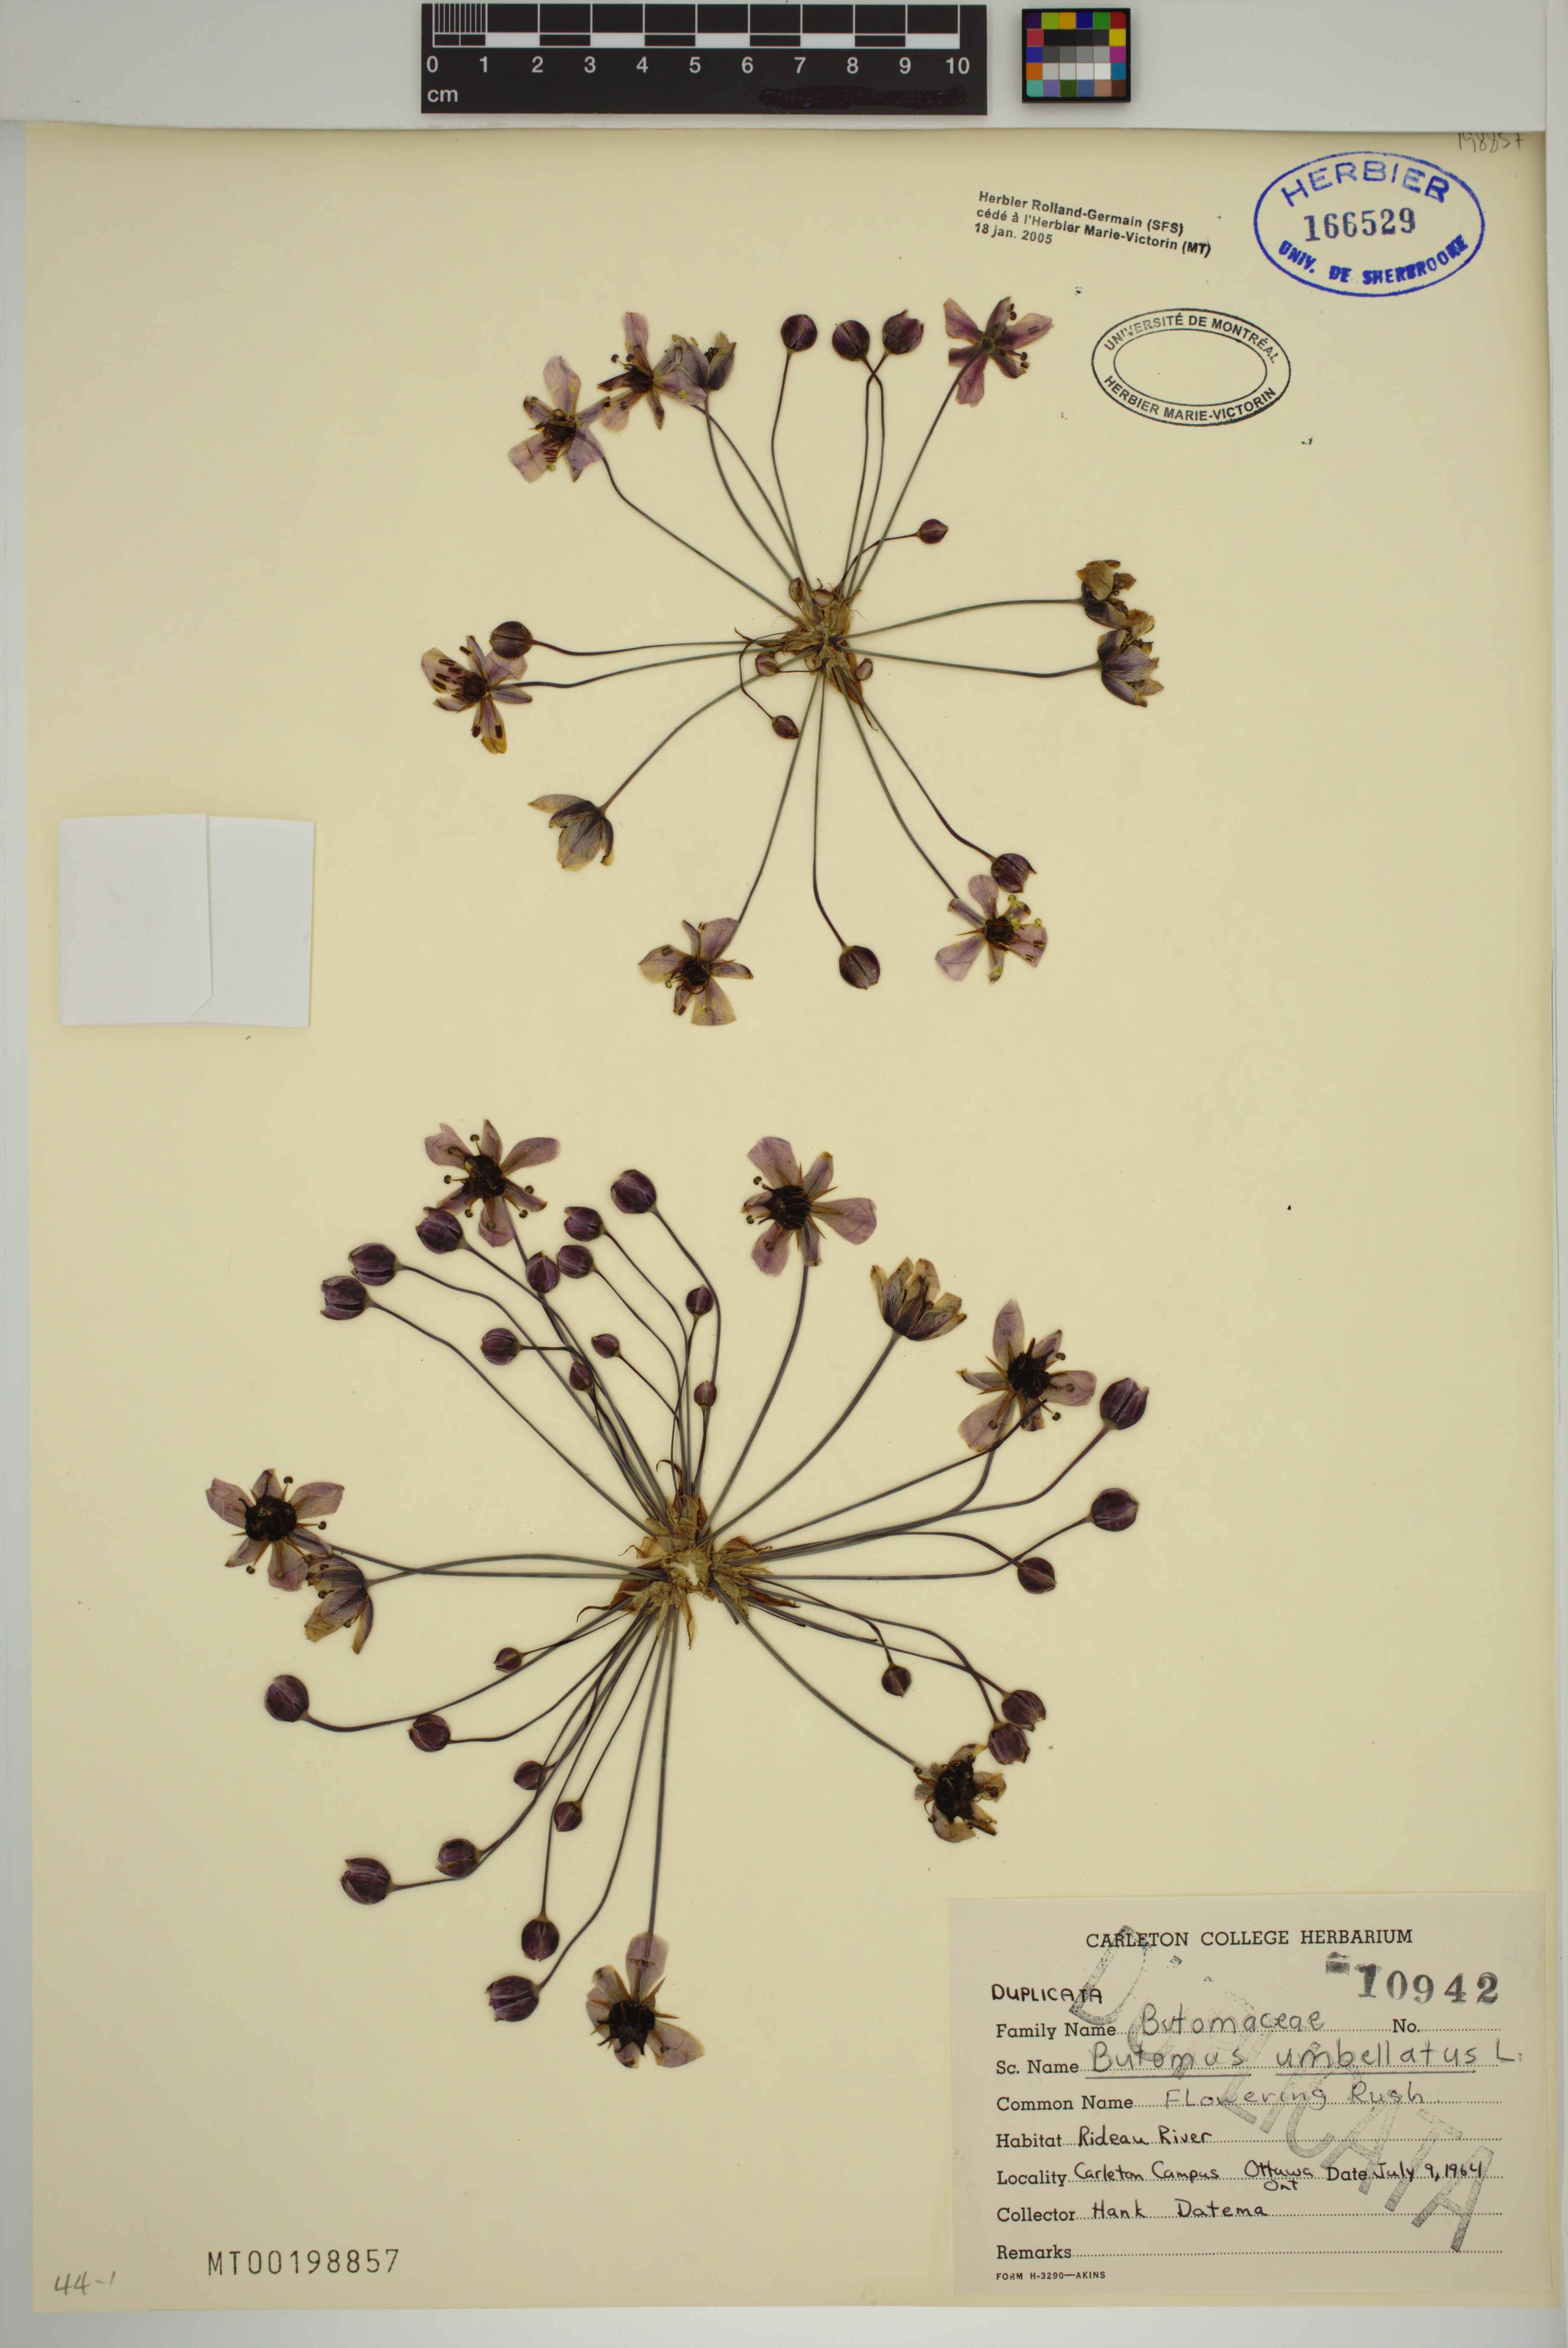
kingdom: Plantae
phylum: Tracheophyta
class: Liliopsida
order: Alismatales
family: Butomaceae
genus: Butomus
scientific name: Butomus umbellatus
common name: Flowering-rush
